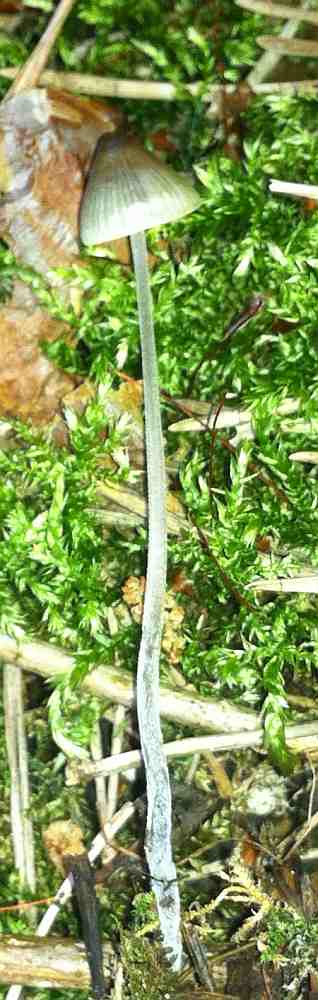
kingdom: Fungi
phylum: Basidiomycota
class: Agaricomycetes
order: Agaricales
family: Mycenaceae
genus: Mycena
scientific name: Mycena amicta
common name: iris-huesvamp
